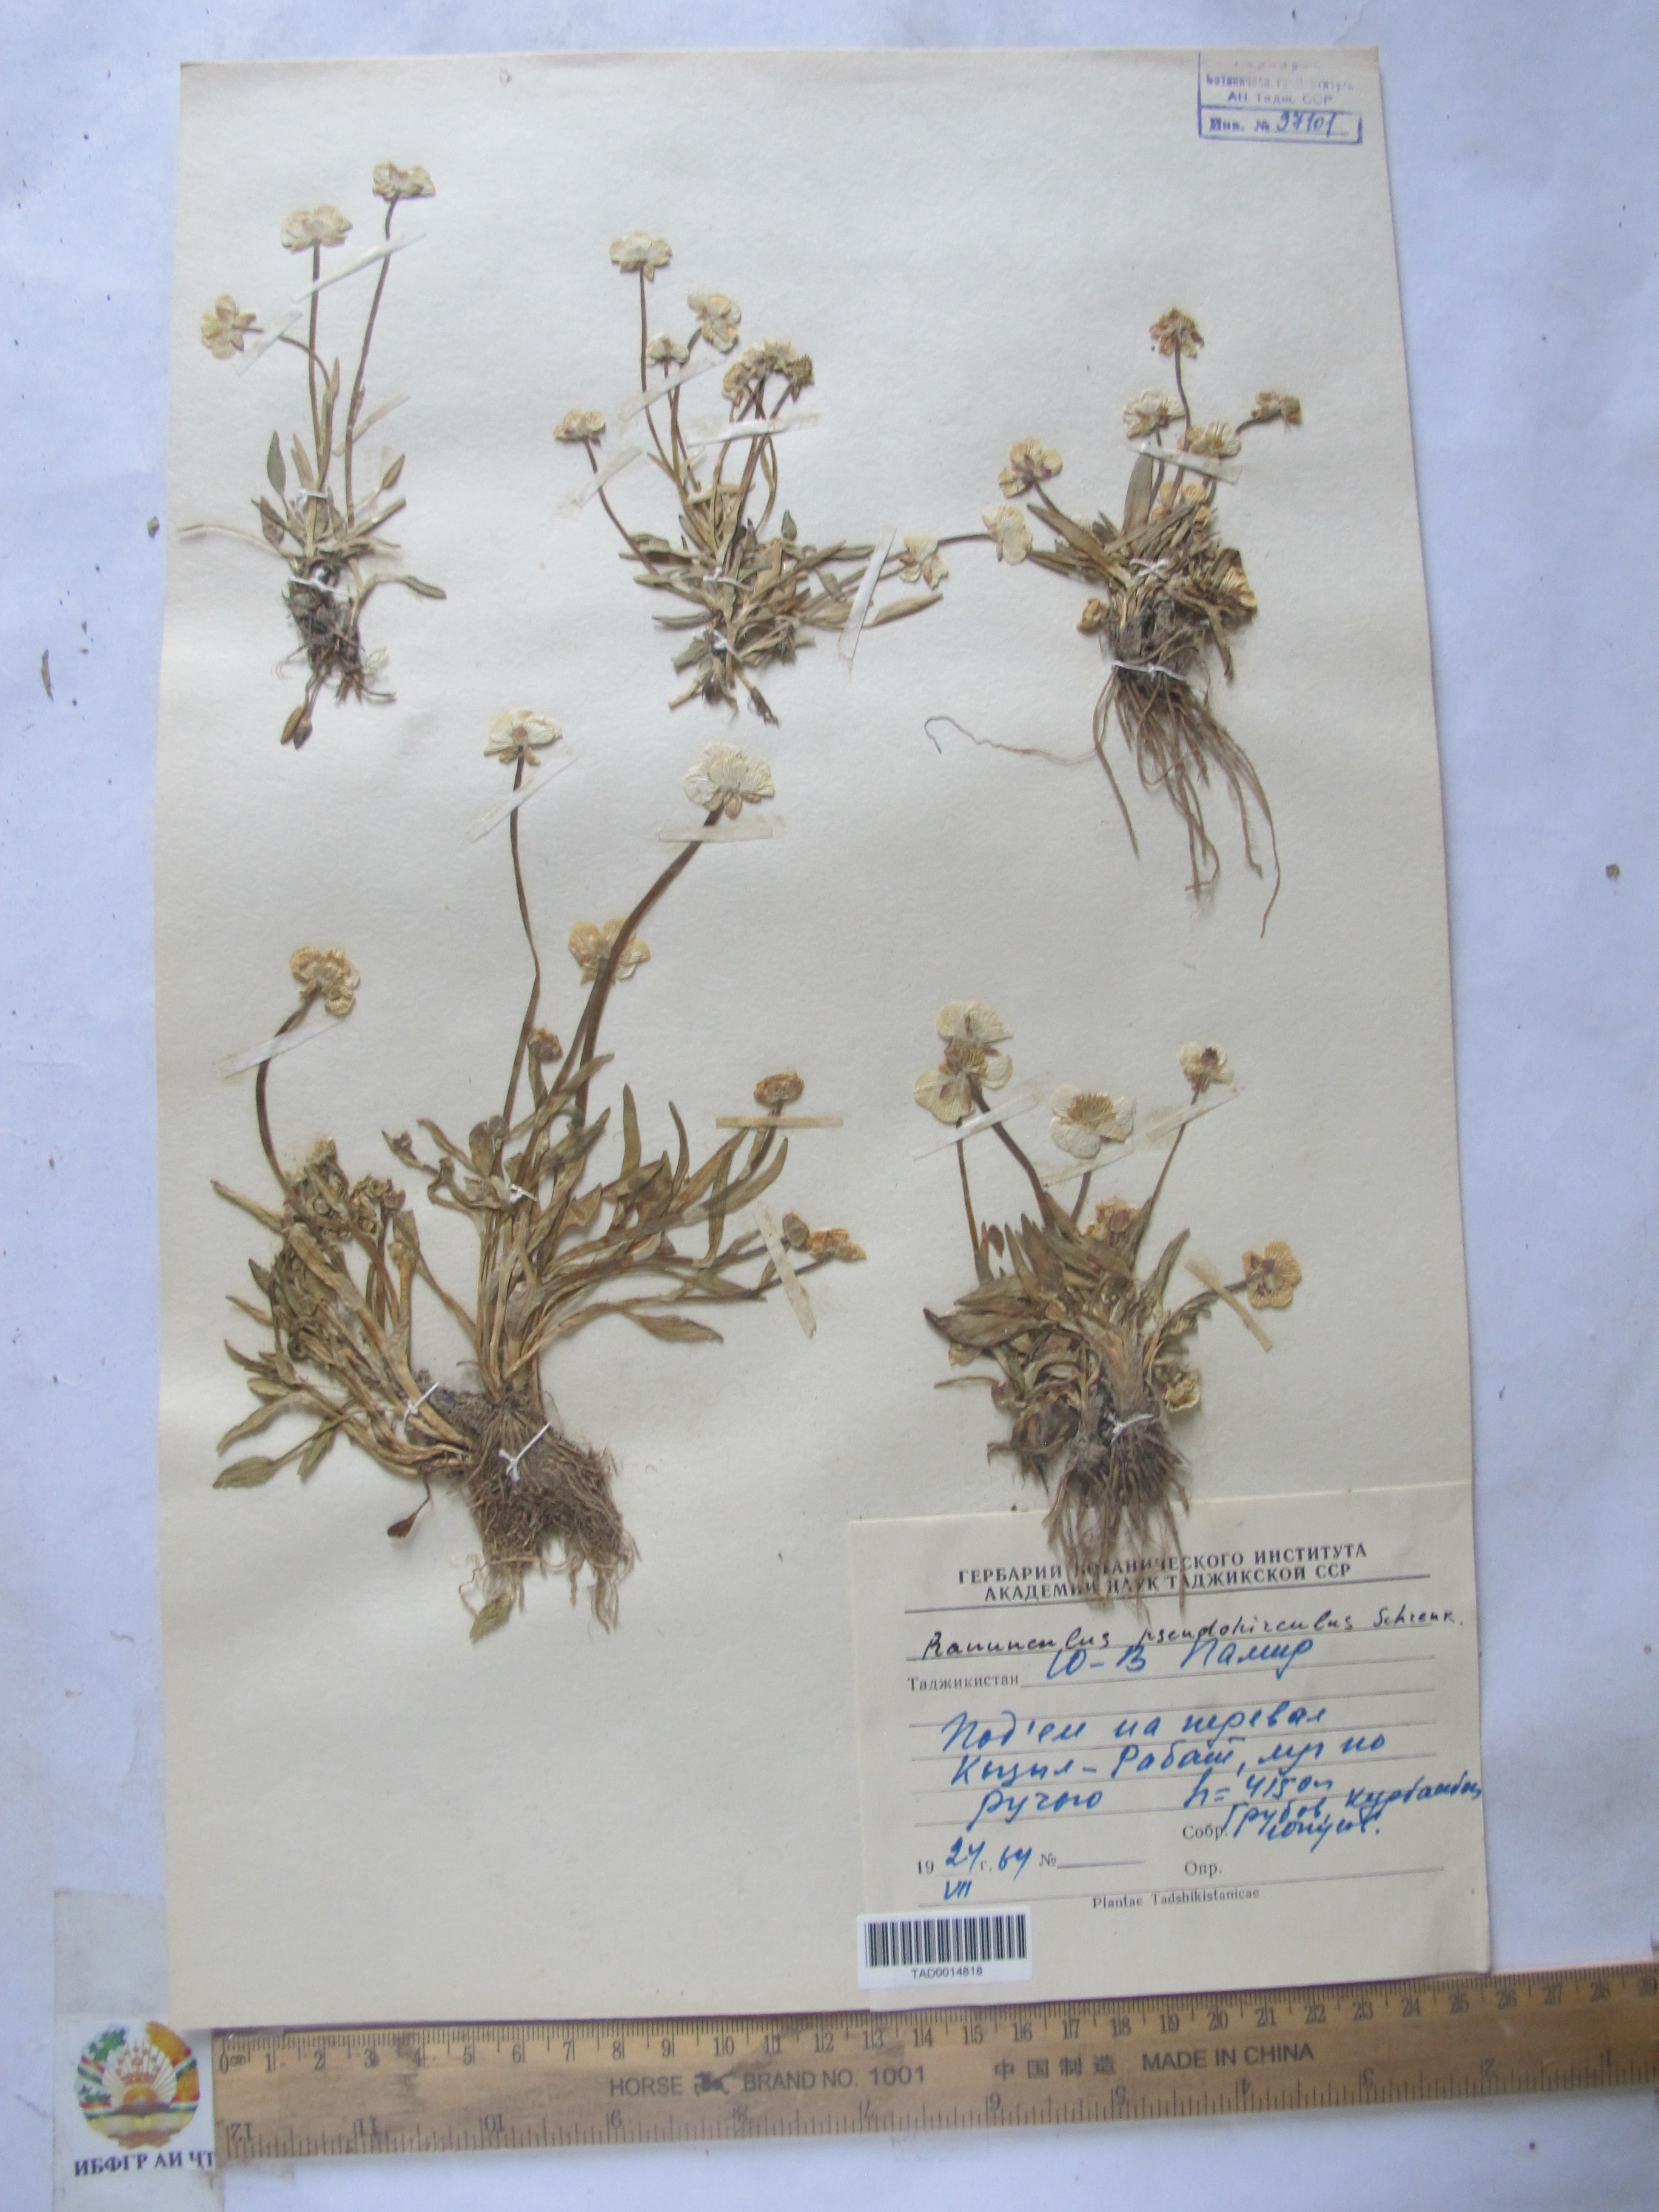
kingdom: Plantae
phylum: Tracheophyta
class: Magnoliopsida
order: Ranunculales
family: Ranunculaceae
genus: Ranunculus
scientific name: Ranunculus pseudohirculus
